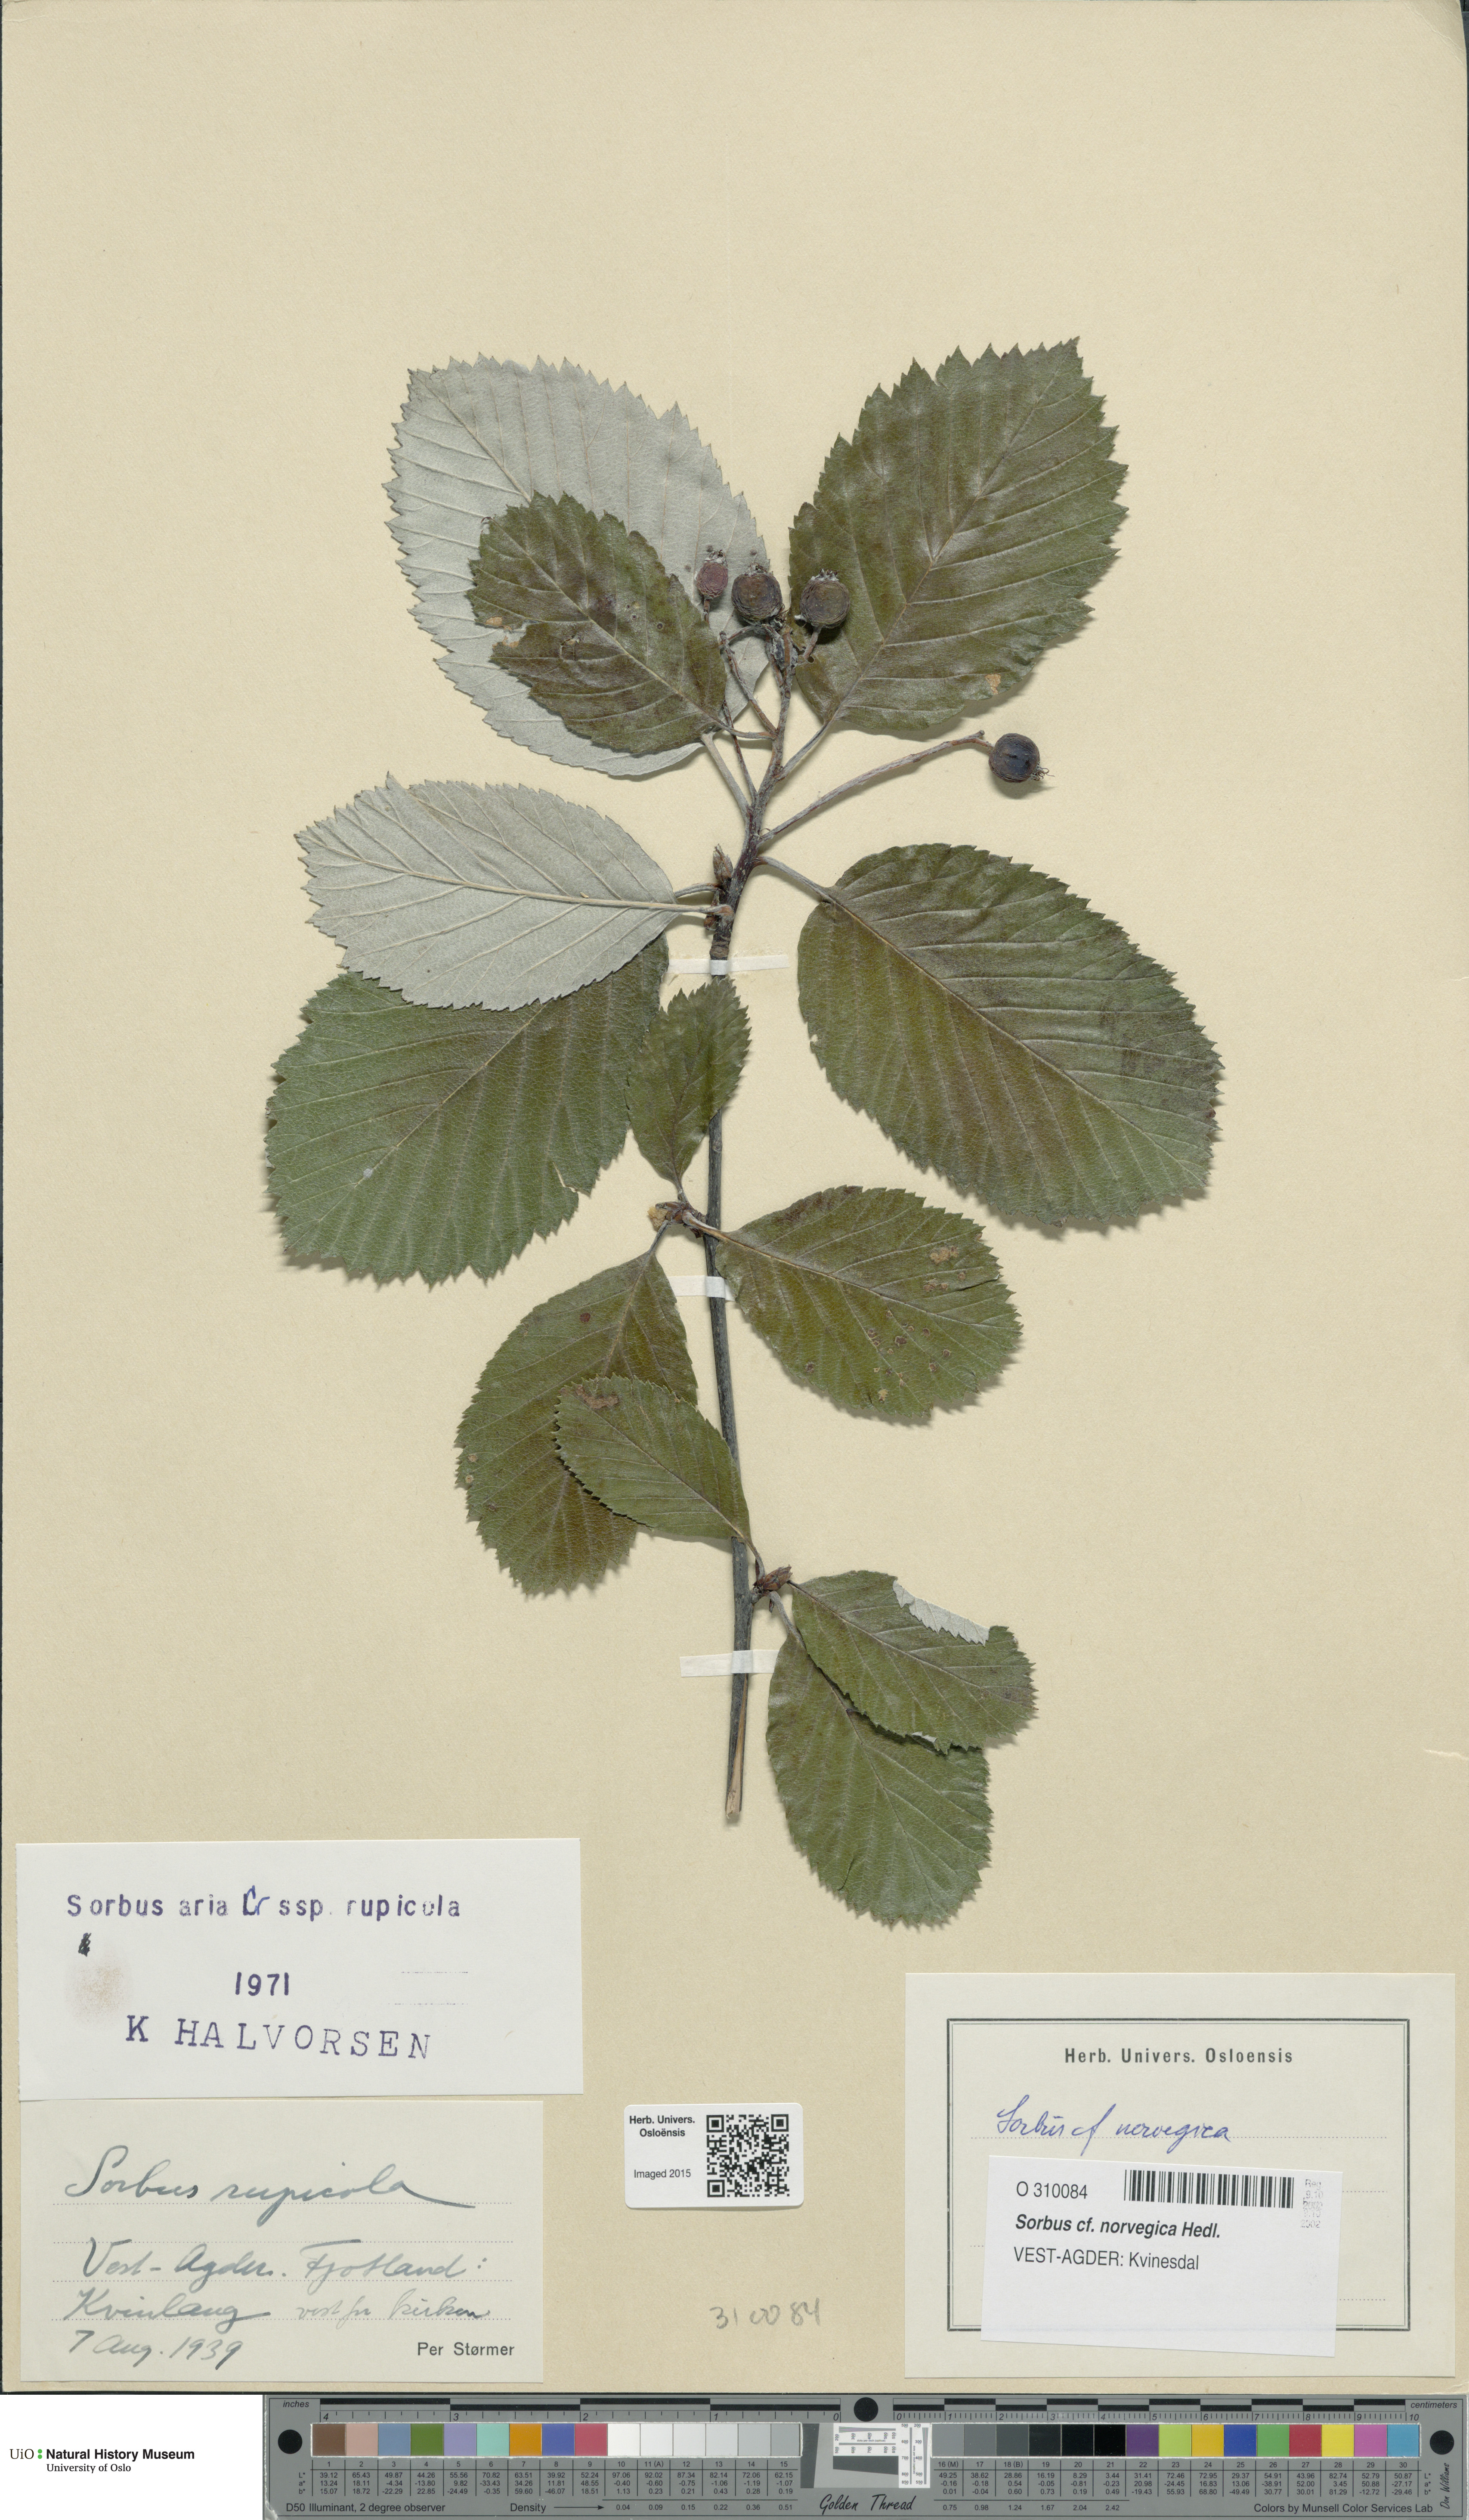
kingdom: Plantae
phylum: Tracheophyta
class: Magnoliopsida
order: Rosales
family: Rosaceae
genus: Aria
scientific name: Aria obtusifolia
